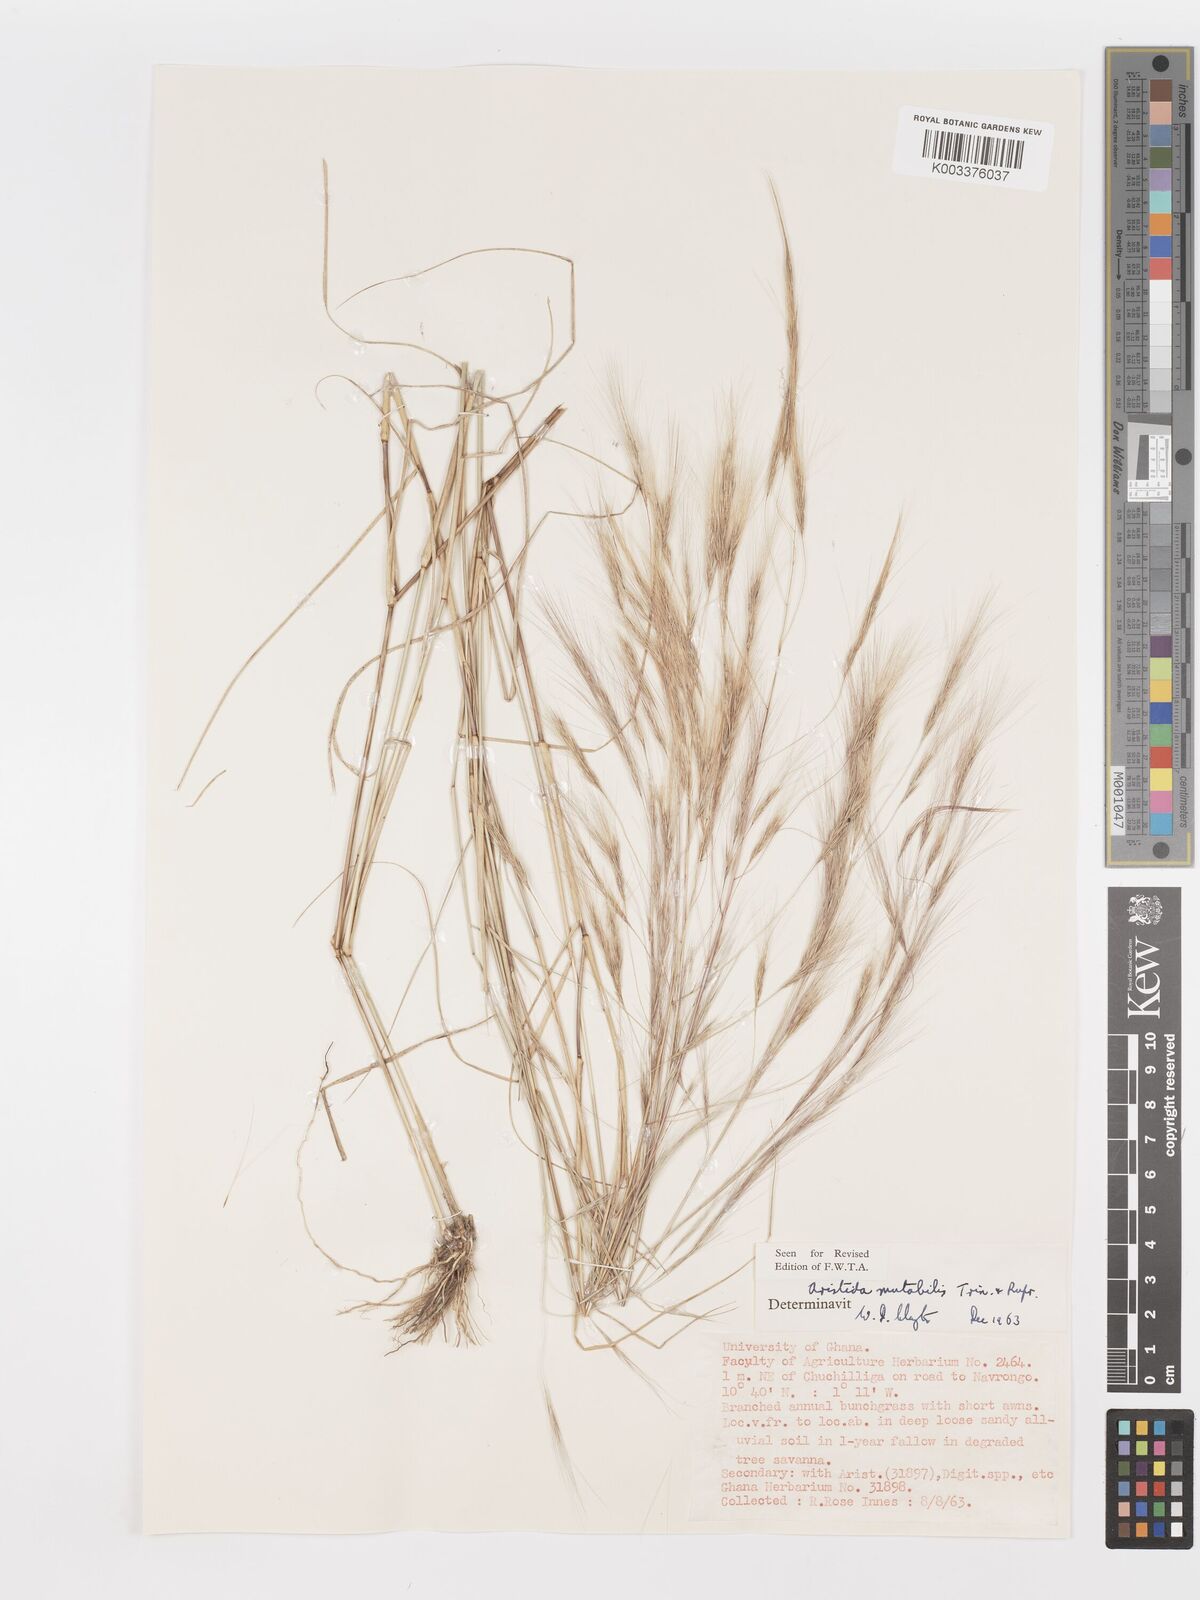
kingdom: Plantae
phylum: Tracheophyta
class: Liliopsida
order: Poales
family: Poaceae
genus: Aristida
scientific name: Aristida mutabilis
